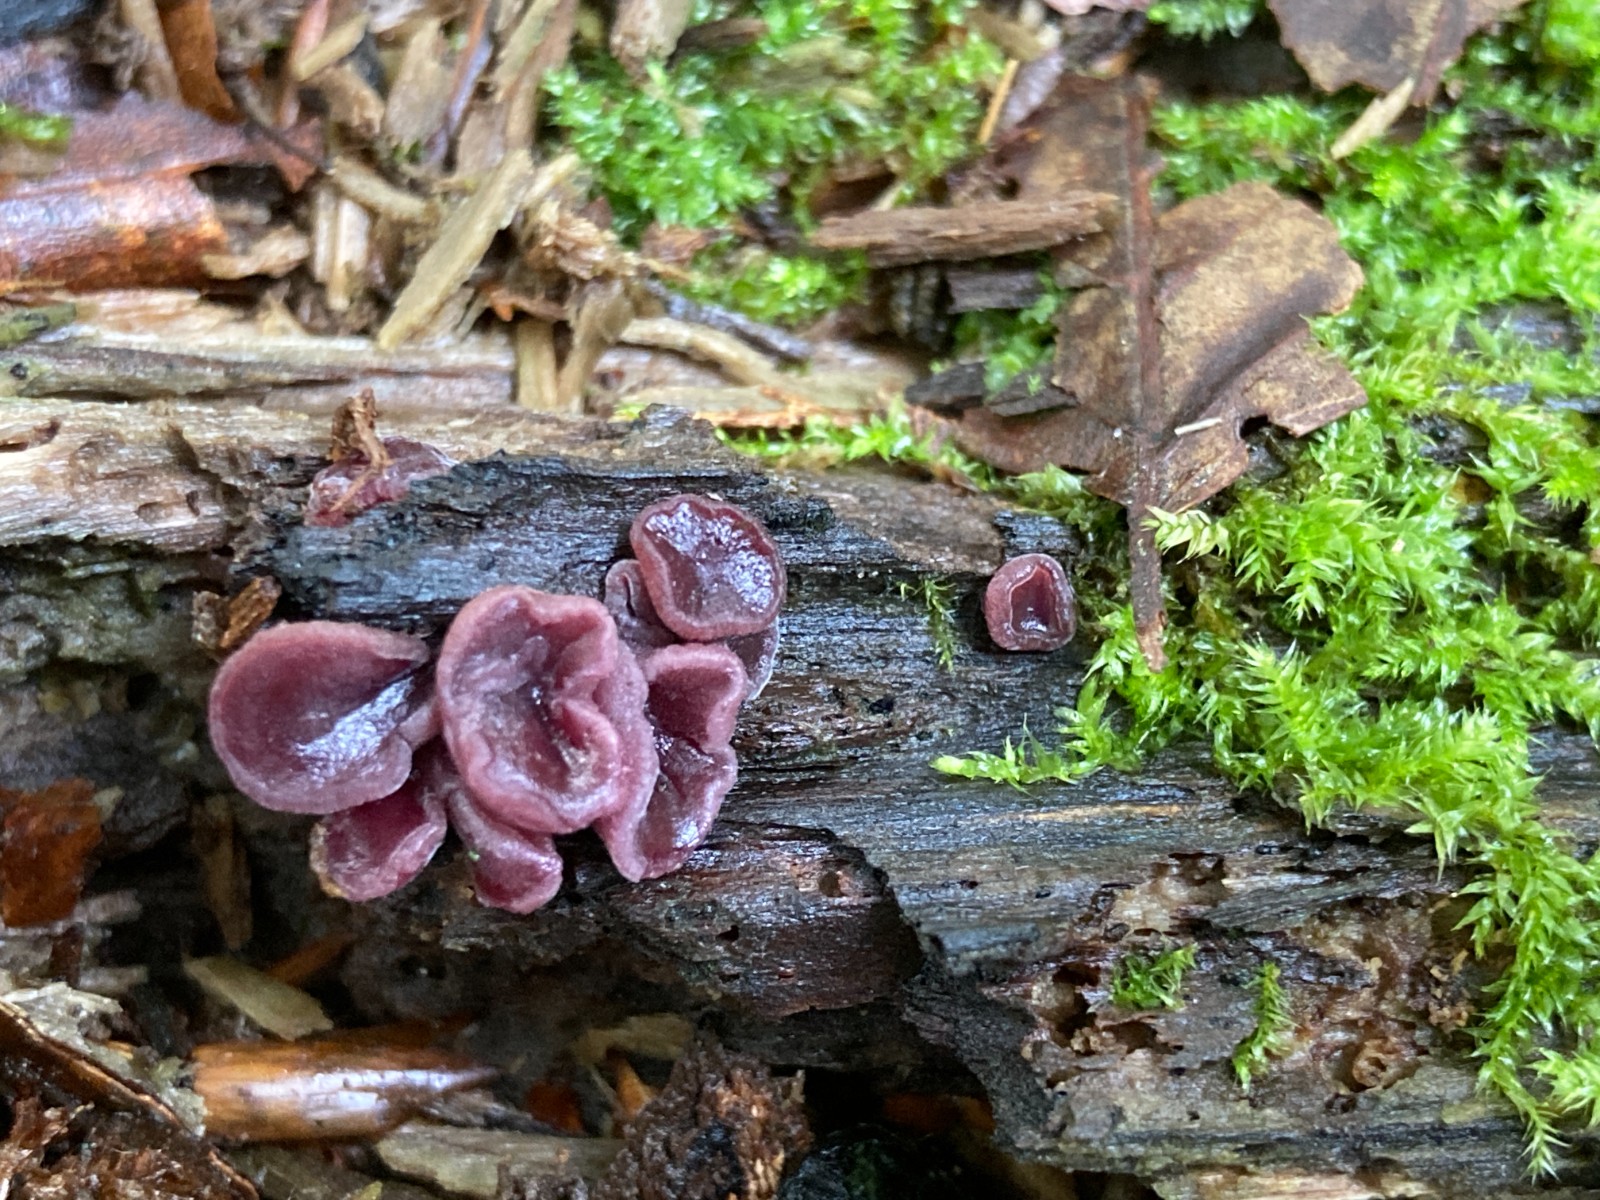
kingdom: Fungi
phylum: Ascomycota
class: Leotiomycetes
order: Helotiales
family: Gelatinodiscaceae
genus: Ascocoryne
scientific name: Ascocoryne cylichnium
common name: stor sejskive
